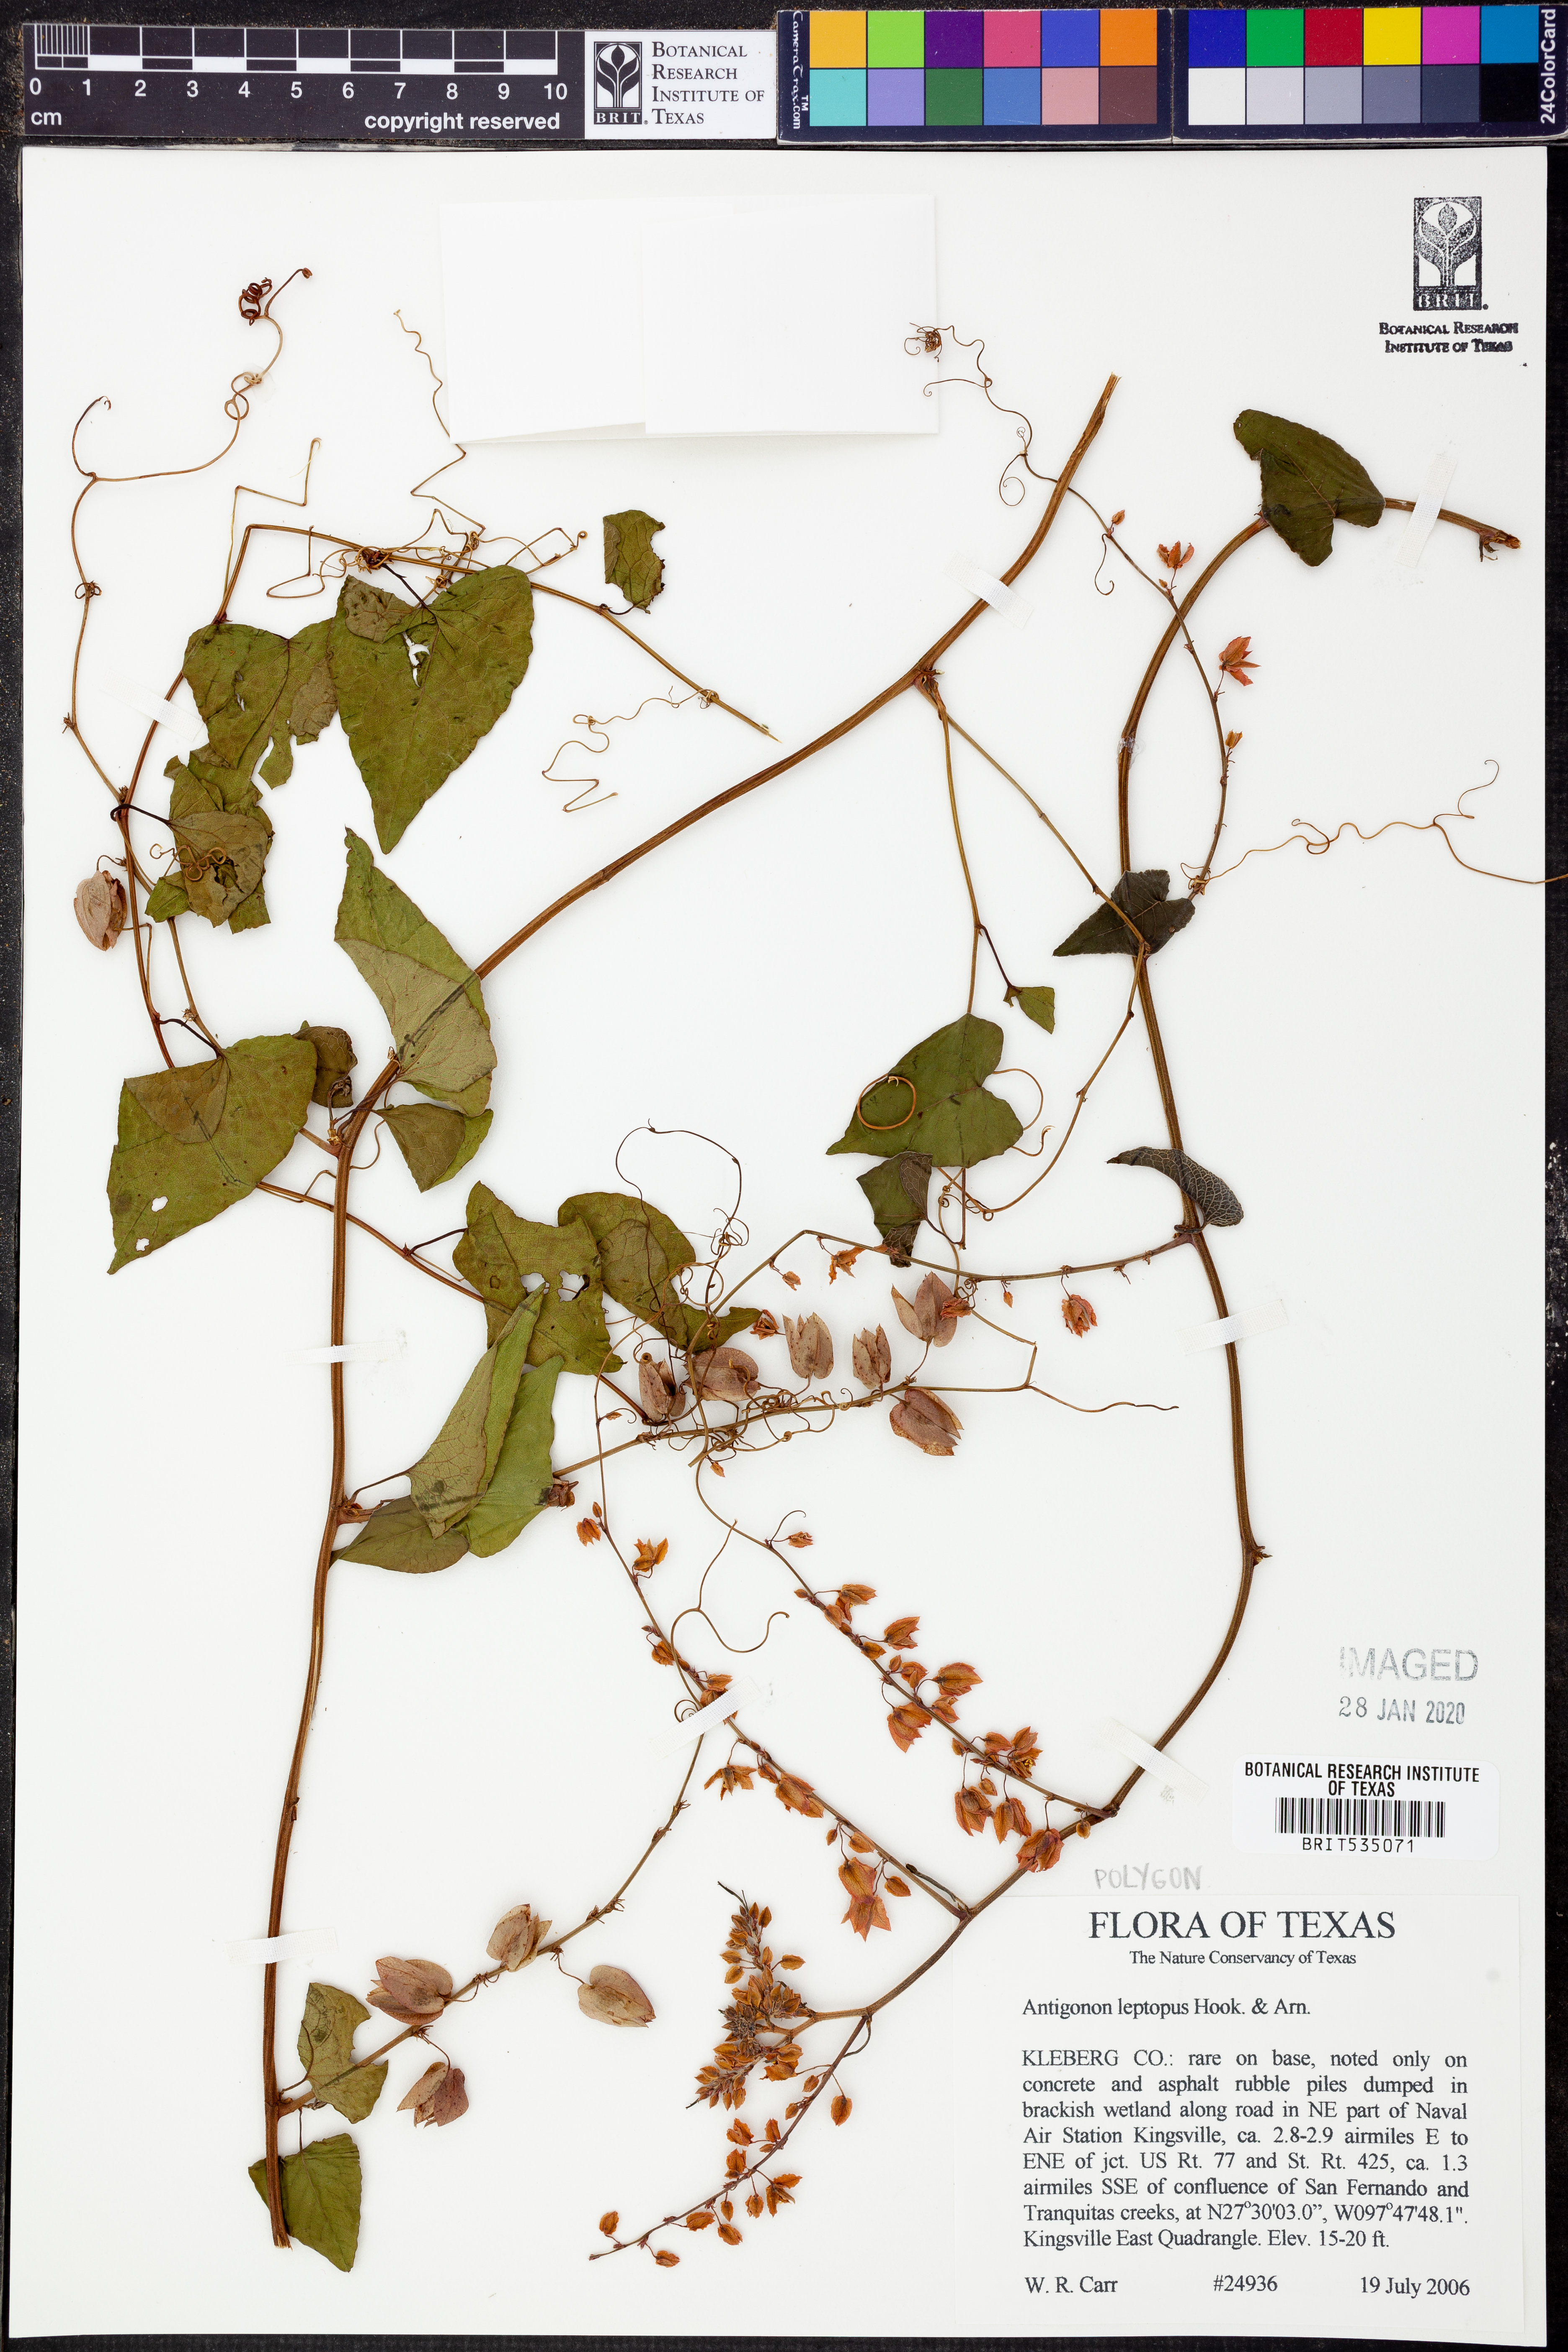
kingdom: Plantae
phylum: Tracheophyta
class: Magnoliopsida
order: Caryophyllales
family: Polygonaceae
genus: Antigonon
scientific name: Antigonon leptopus
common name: Coral vine
